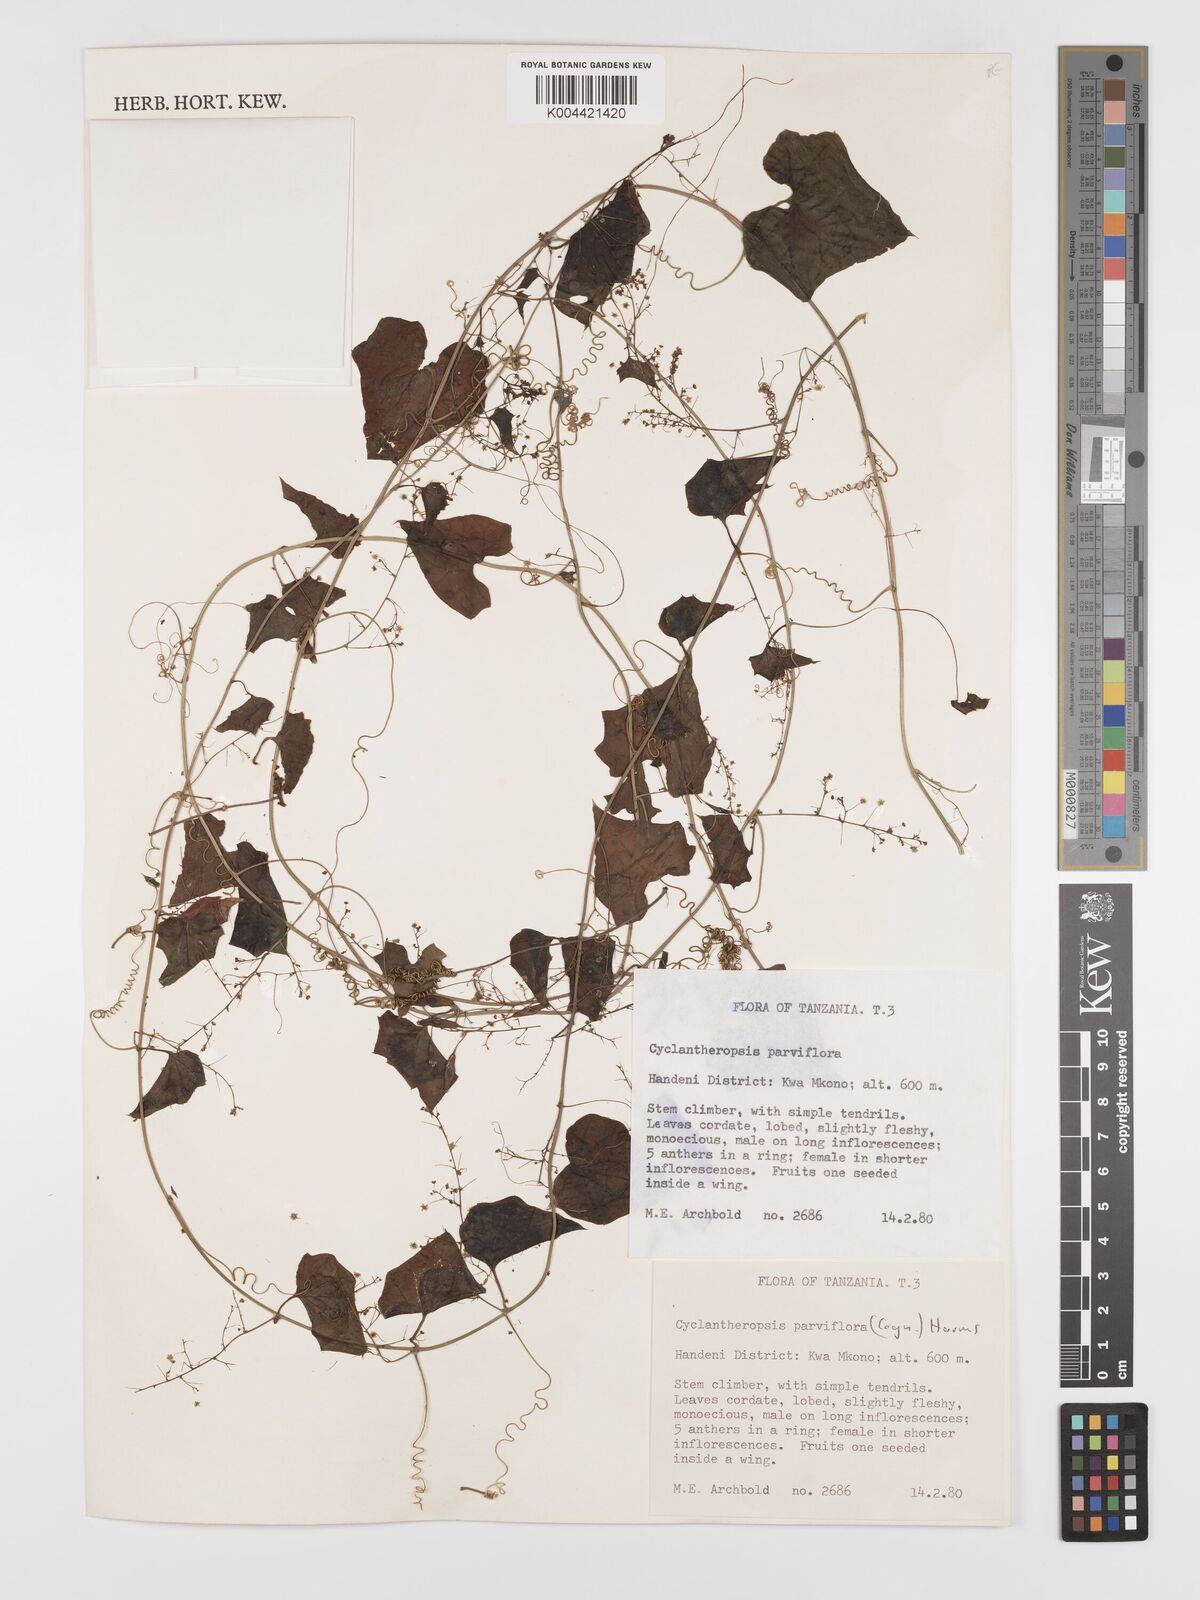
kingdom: Plantae
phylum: Tracheophyta
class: Magnoliopsida
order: Cucurbitales
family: Cucurbitaceae
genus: Cyclantheropsis
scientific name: Cyclantheropsis parviflora
